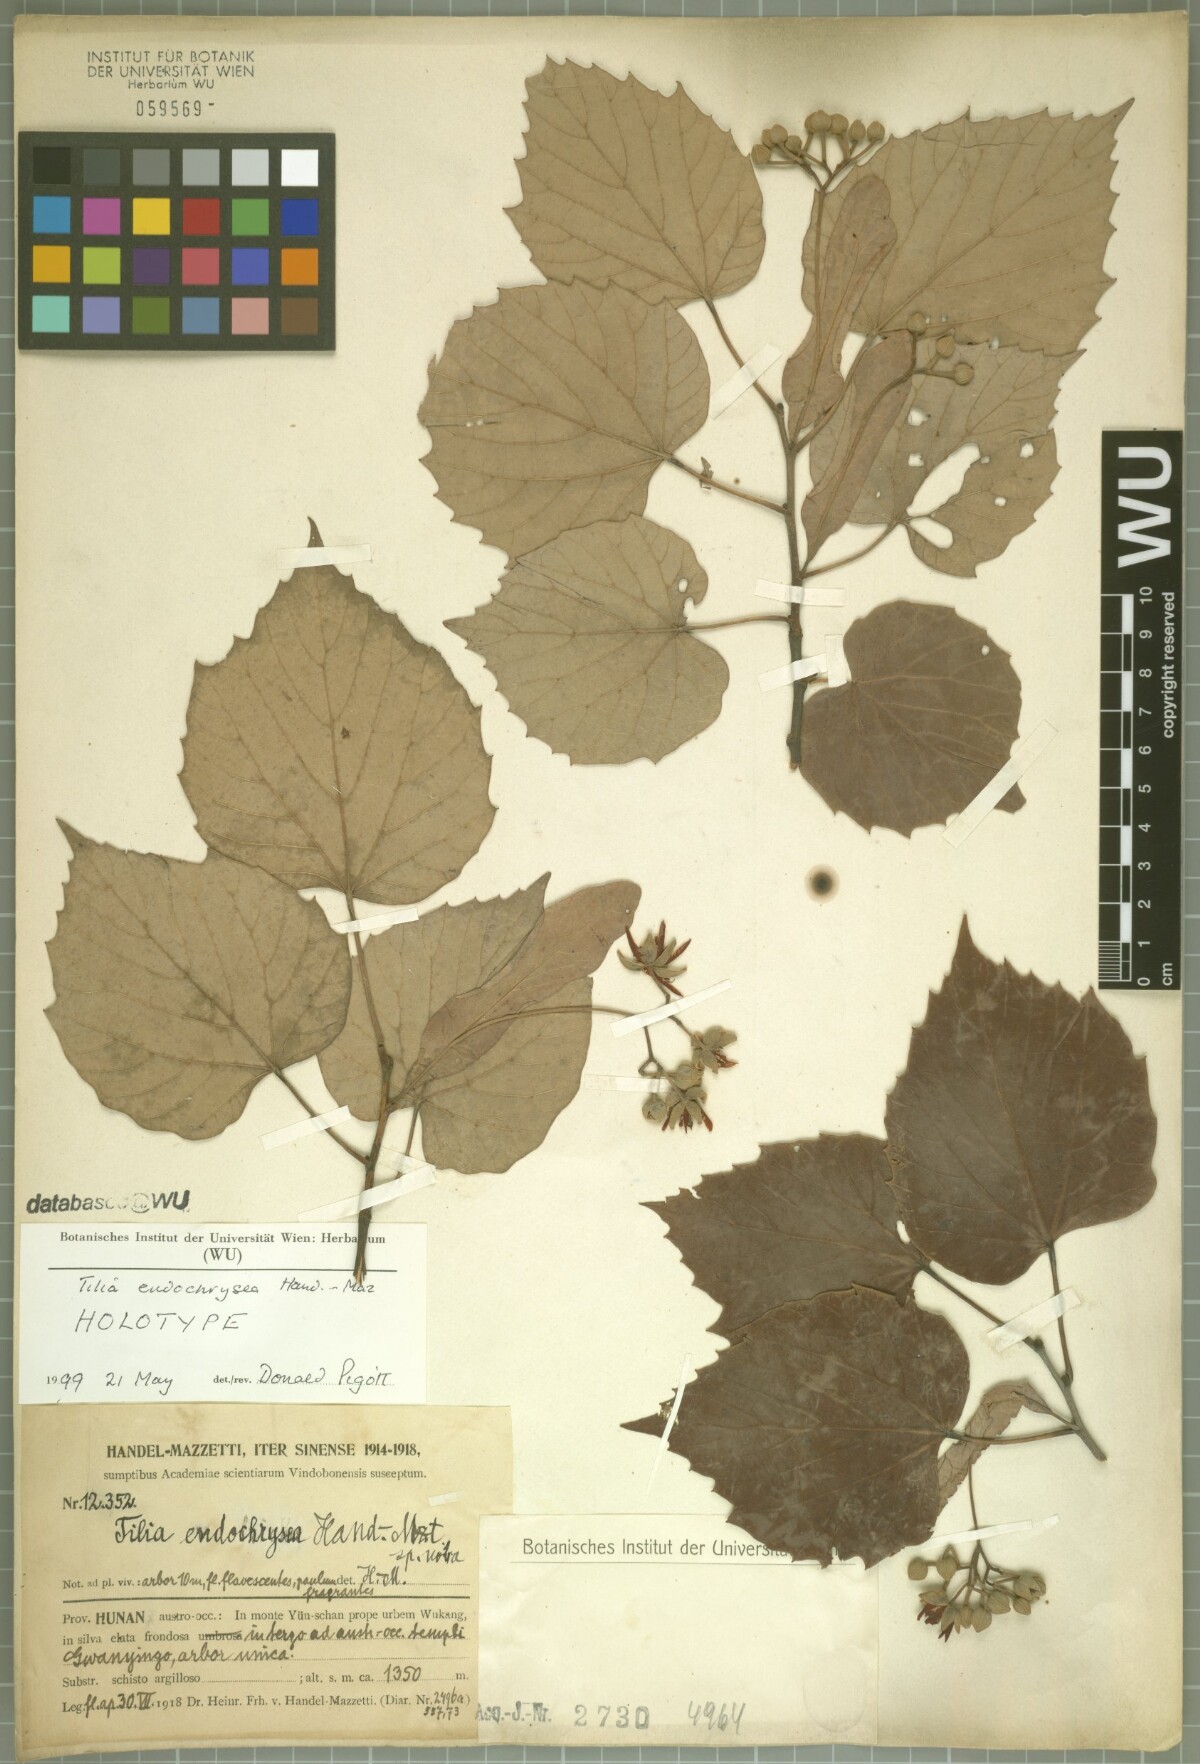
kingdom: Plantae
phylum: Tracheophyta
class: Magnoliopsida
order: Malvales
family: Malvaceae
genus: Tilia
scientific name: Tilia endochrysea
